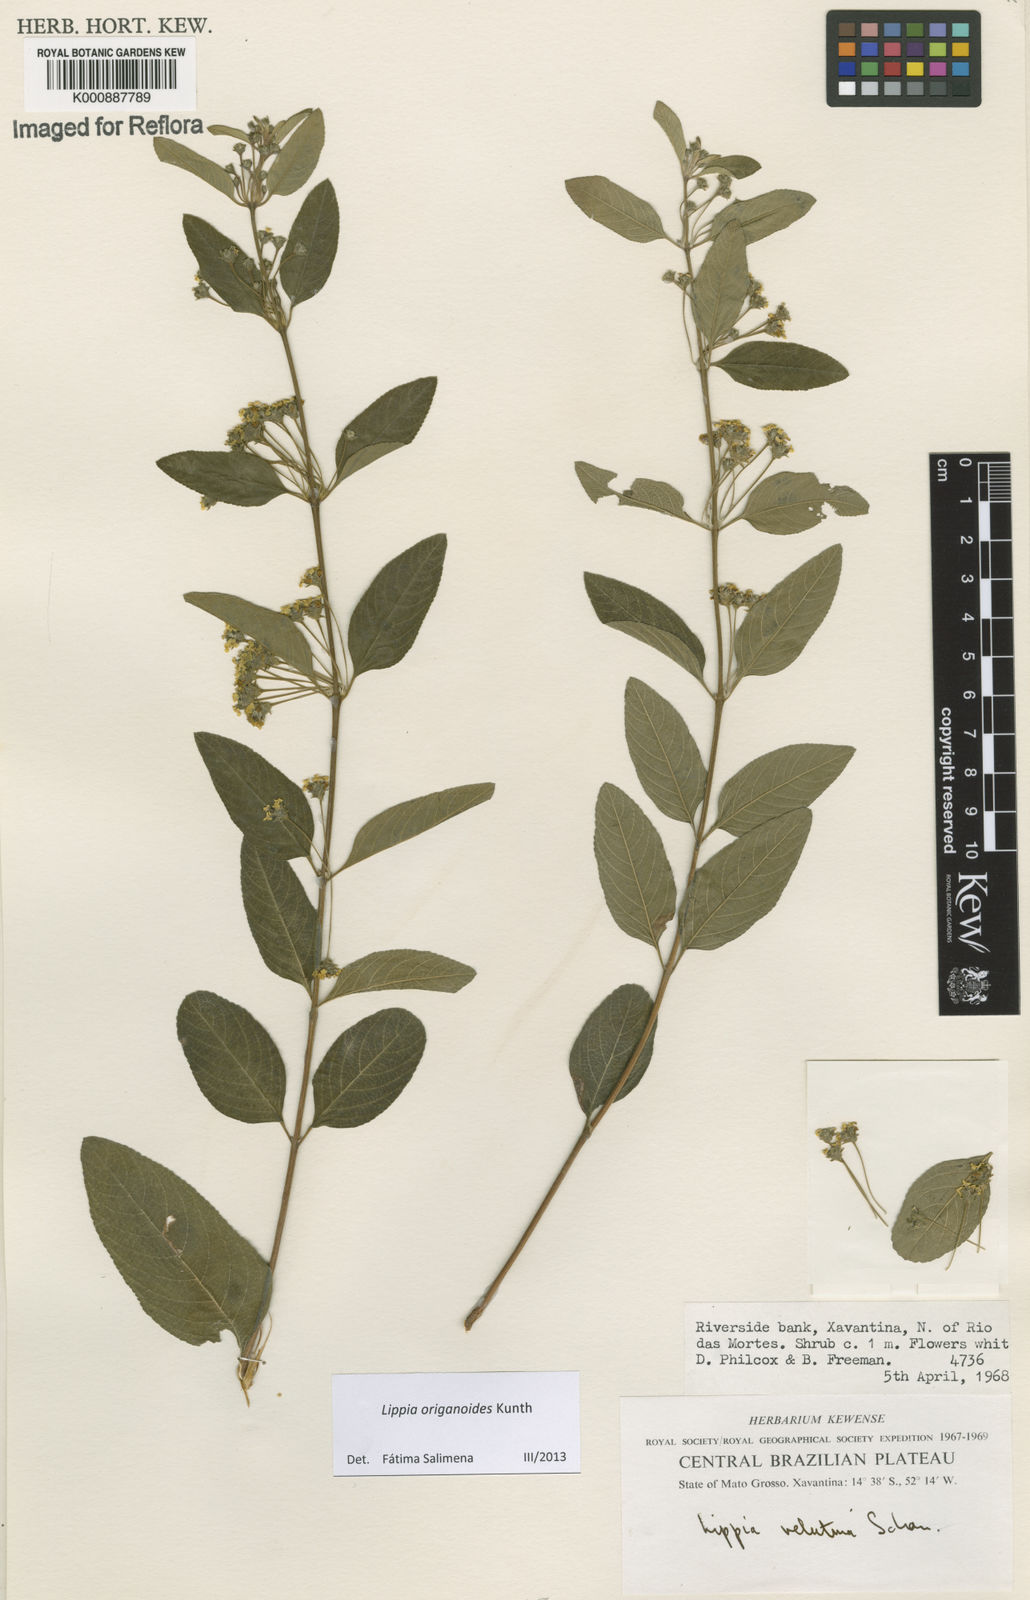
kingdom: Plantae
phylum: Tracheophyta
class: Magnoliopsida
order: Lamiales
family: Verbenaceae
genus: Lippia
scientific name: Lippia origanoides
